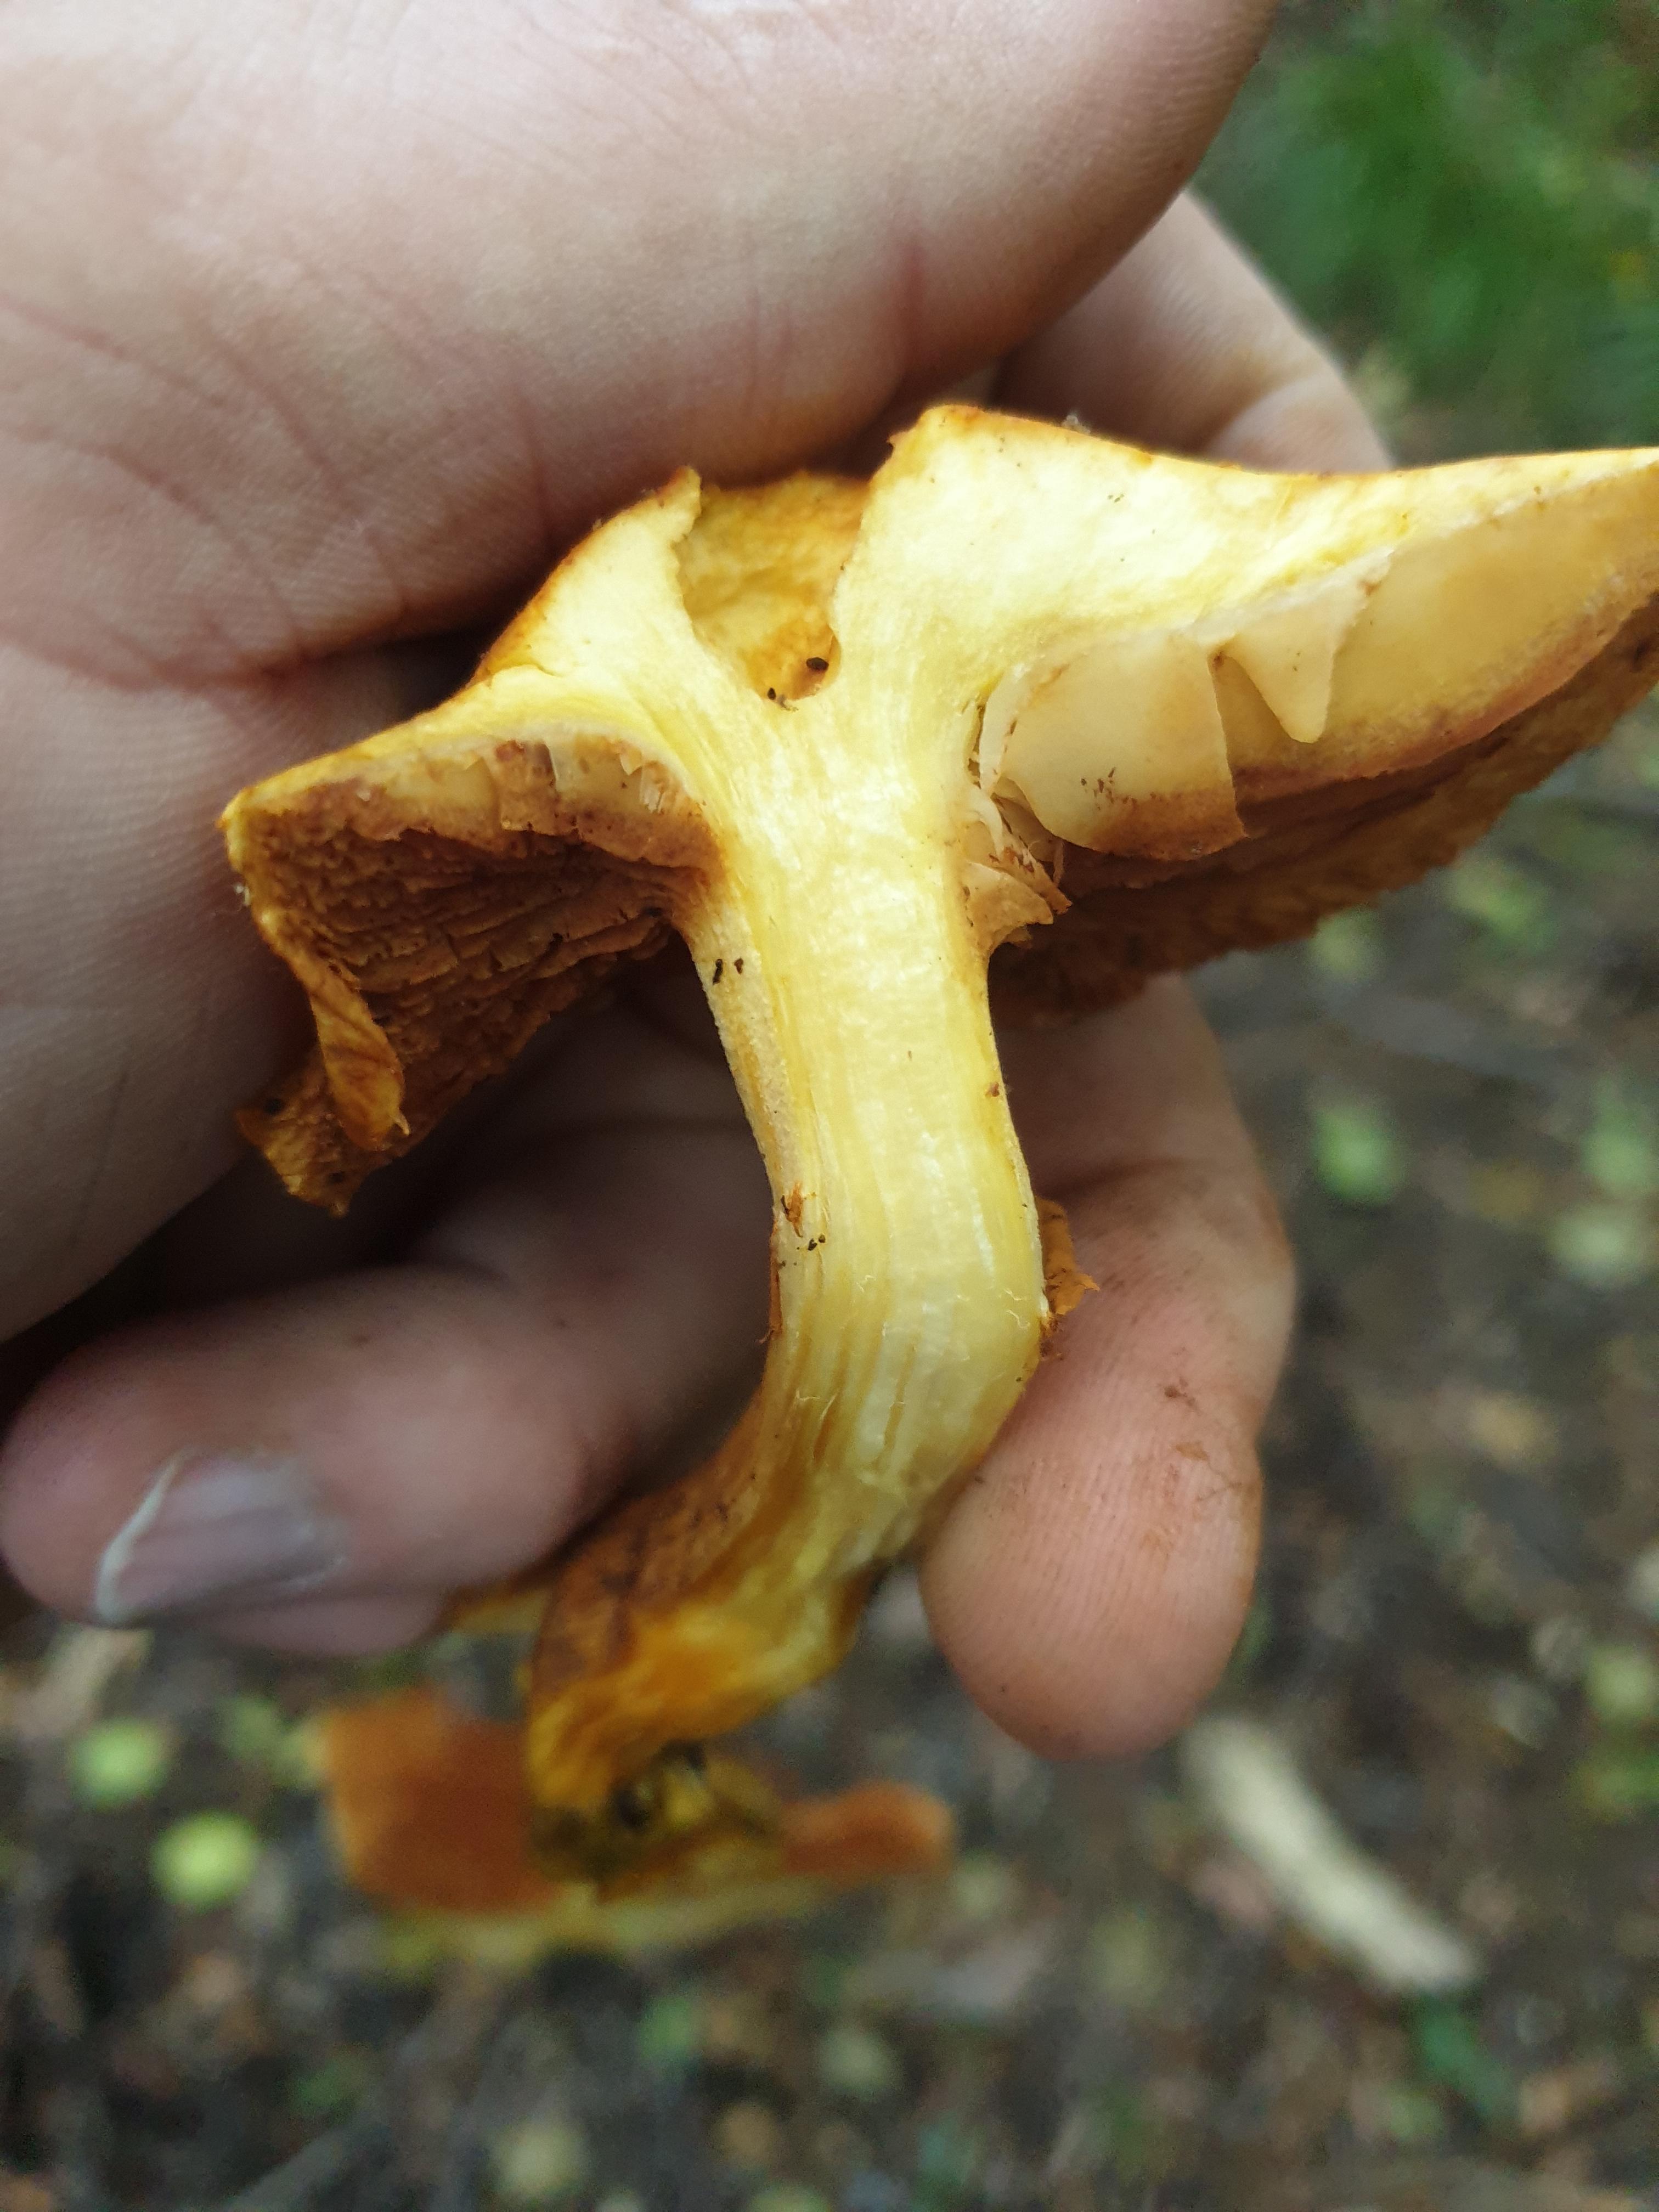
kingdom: Fungi
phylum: Basidiomycota
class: Agaricomycetes
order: Agaricales
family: Hymenogastraceae
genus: Gymnopilus
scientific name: Gymnopilus spectabilis
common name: fibret flammehat
